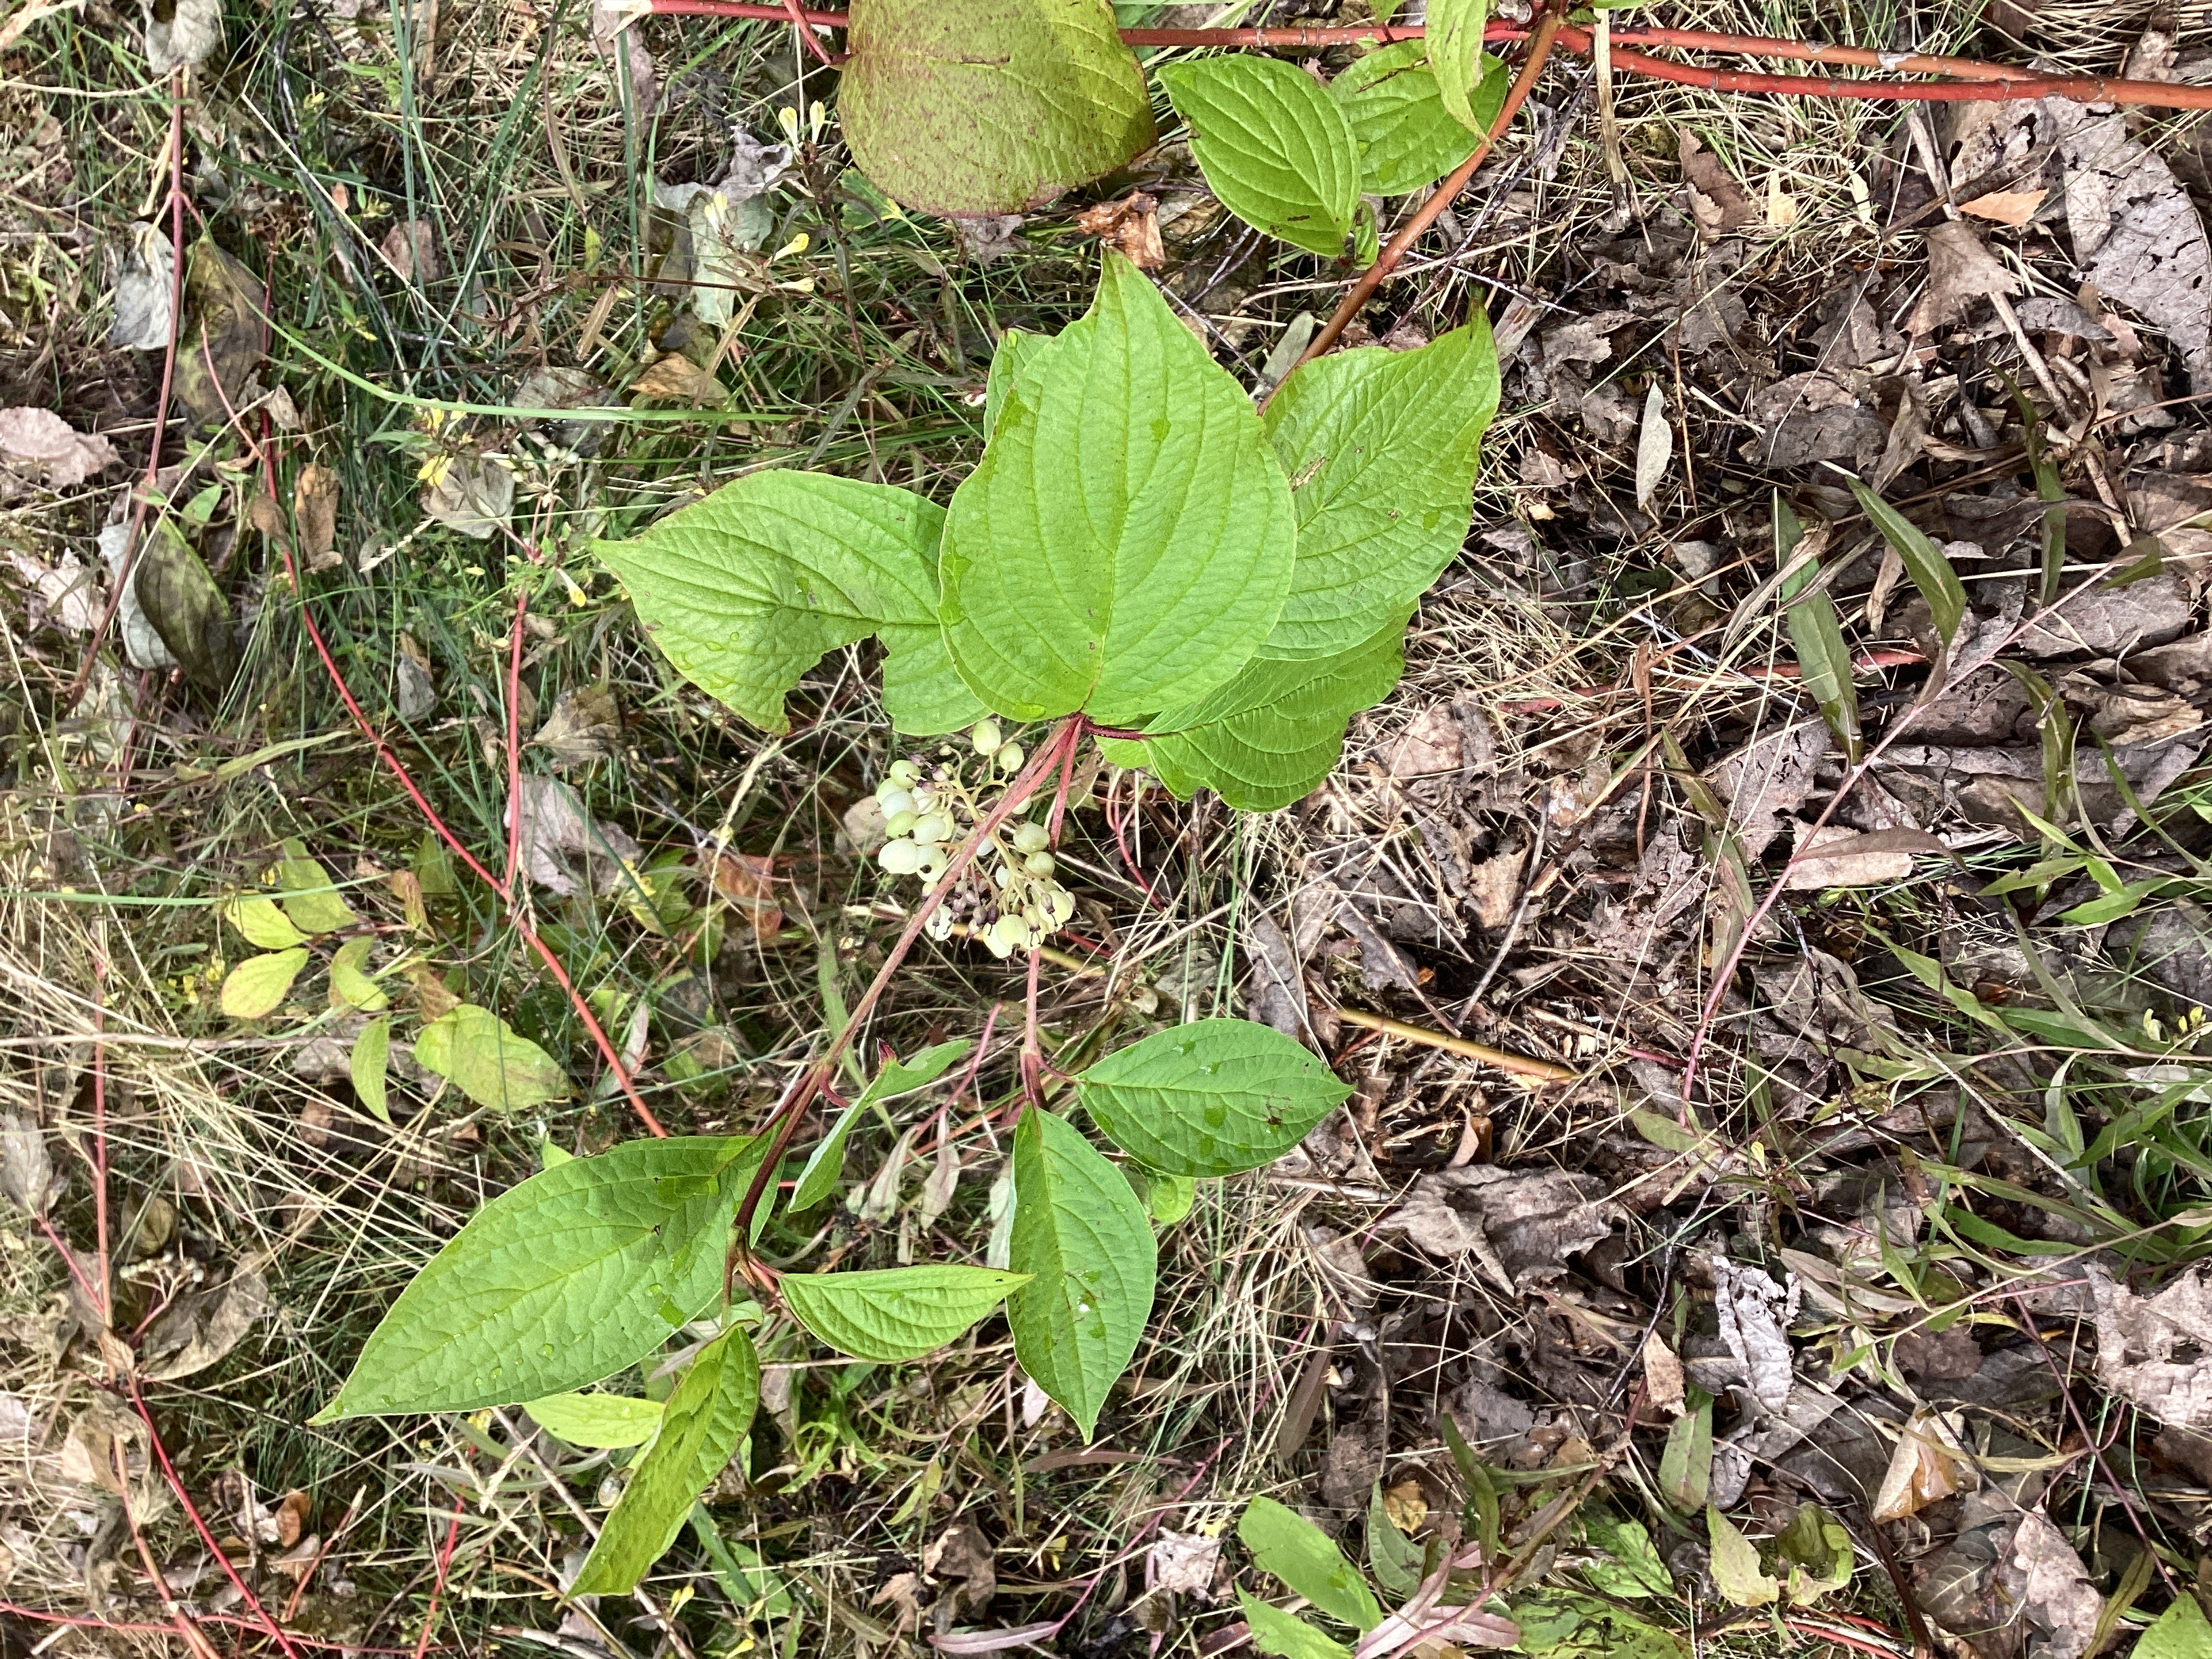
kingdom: Plantae
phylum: Tracheophyta
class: Magnoliopsida
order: Cornales
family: Cornaceae
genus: Cornus
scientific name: Cornus sericea
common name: alaskakornell
